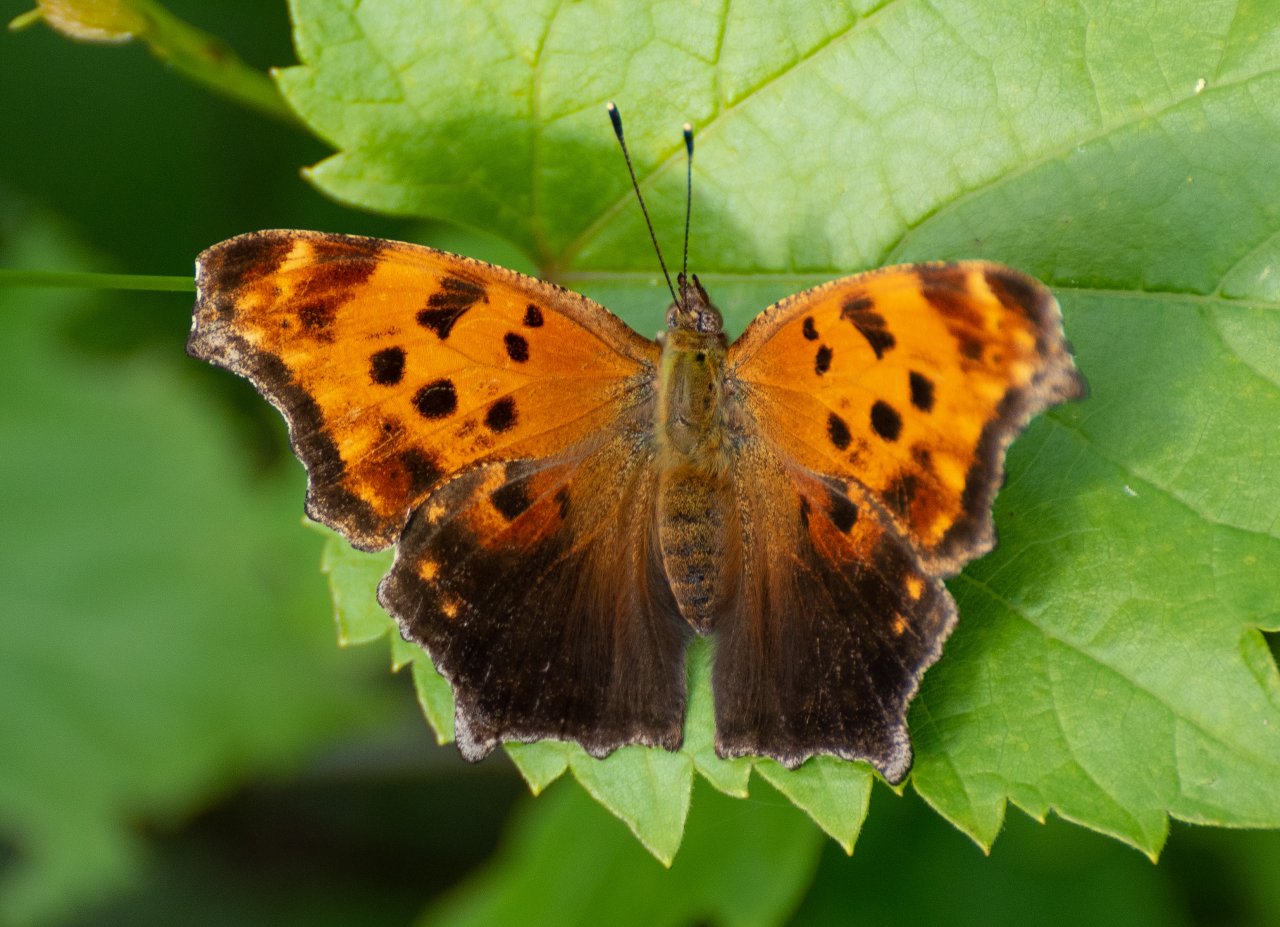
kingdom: Animalia
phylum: Arthropoda
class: Insecta
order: Lepidoptera
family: Nymphalidae
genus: Polygonia
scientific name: Polygonia comma
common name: Eastern Comma
